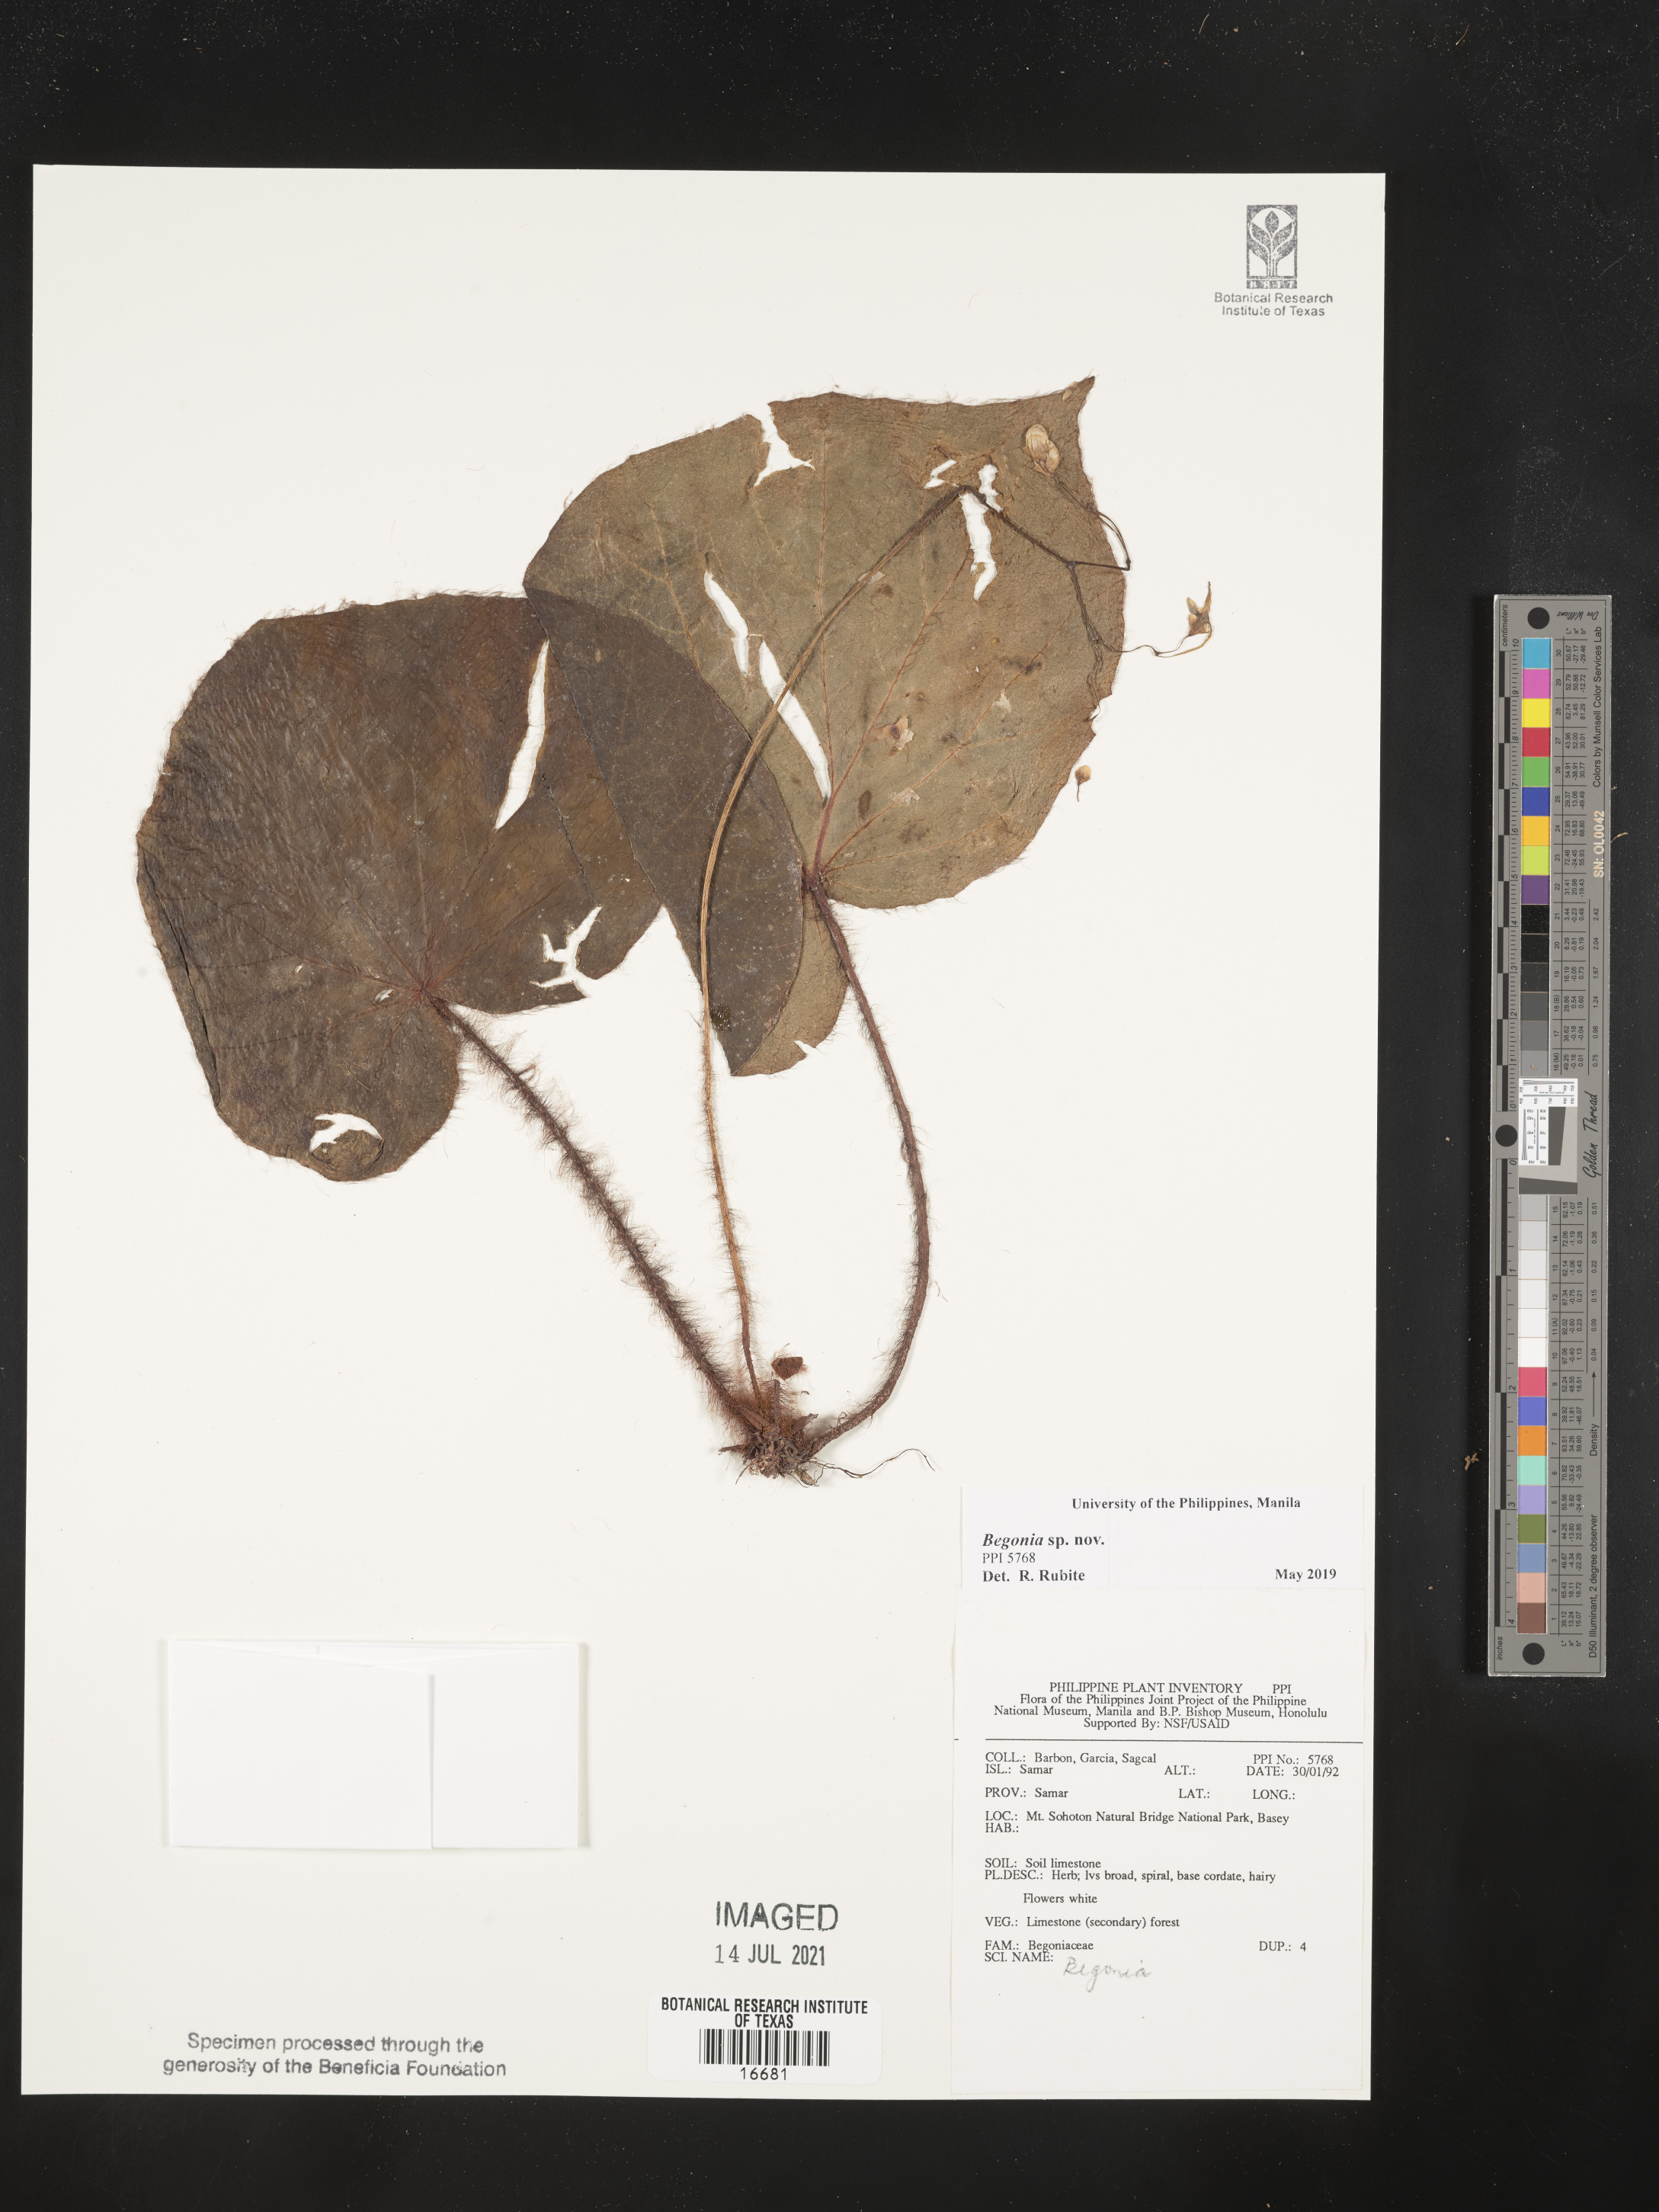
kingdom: Plantae
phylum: Tracheophyta
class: Magnoliopsida
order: Cucurbitales
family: Begoniaceae
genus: Begonia
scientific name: Begonia
